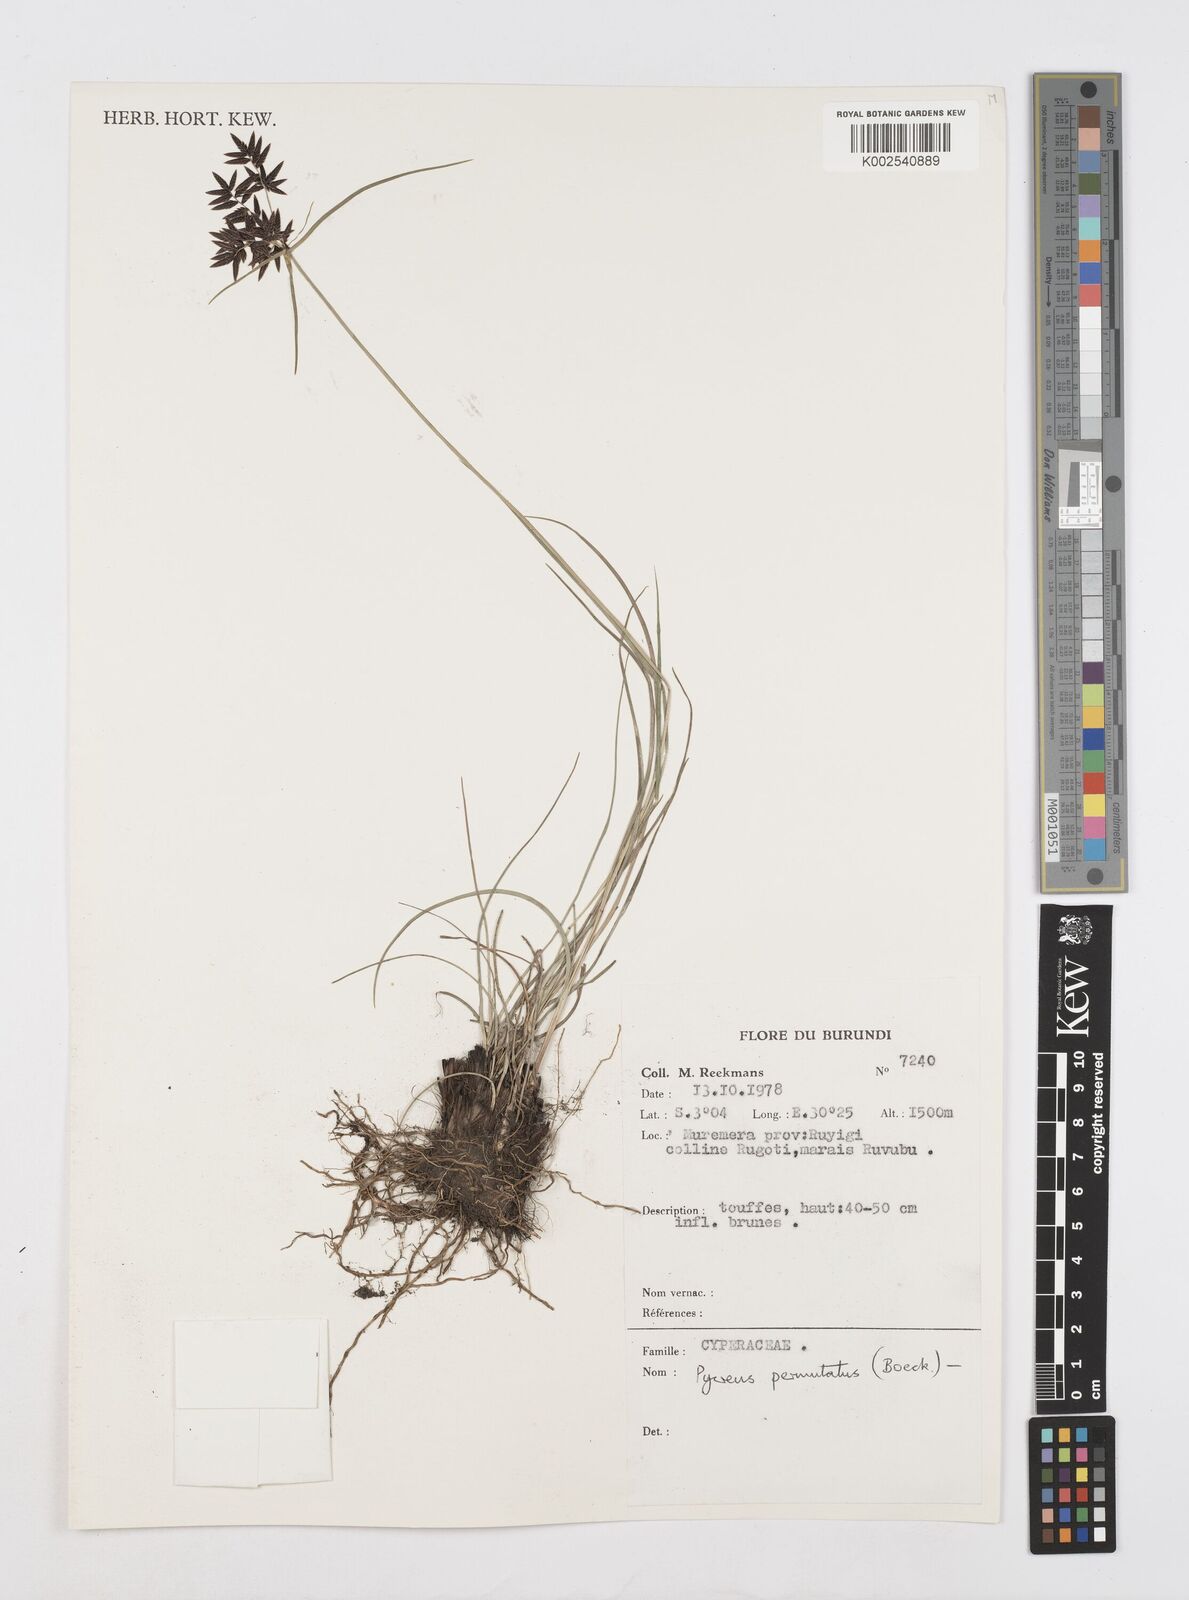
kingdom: Plantae
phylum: Tracheophyta
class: Liliopsida
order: Poales
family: Cyperaceae
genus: Cyperus
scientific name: Cyperus nigricans
